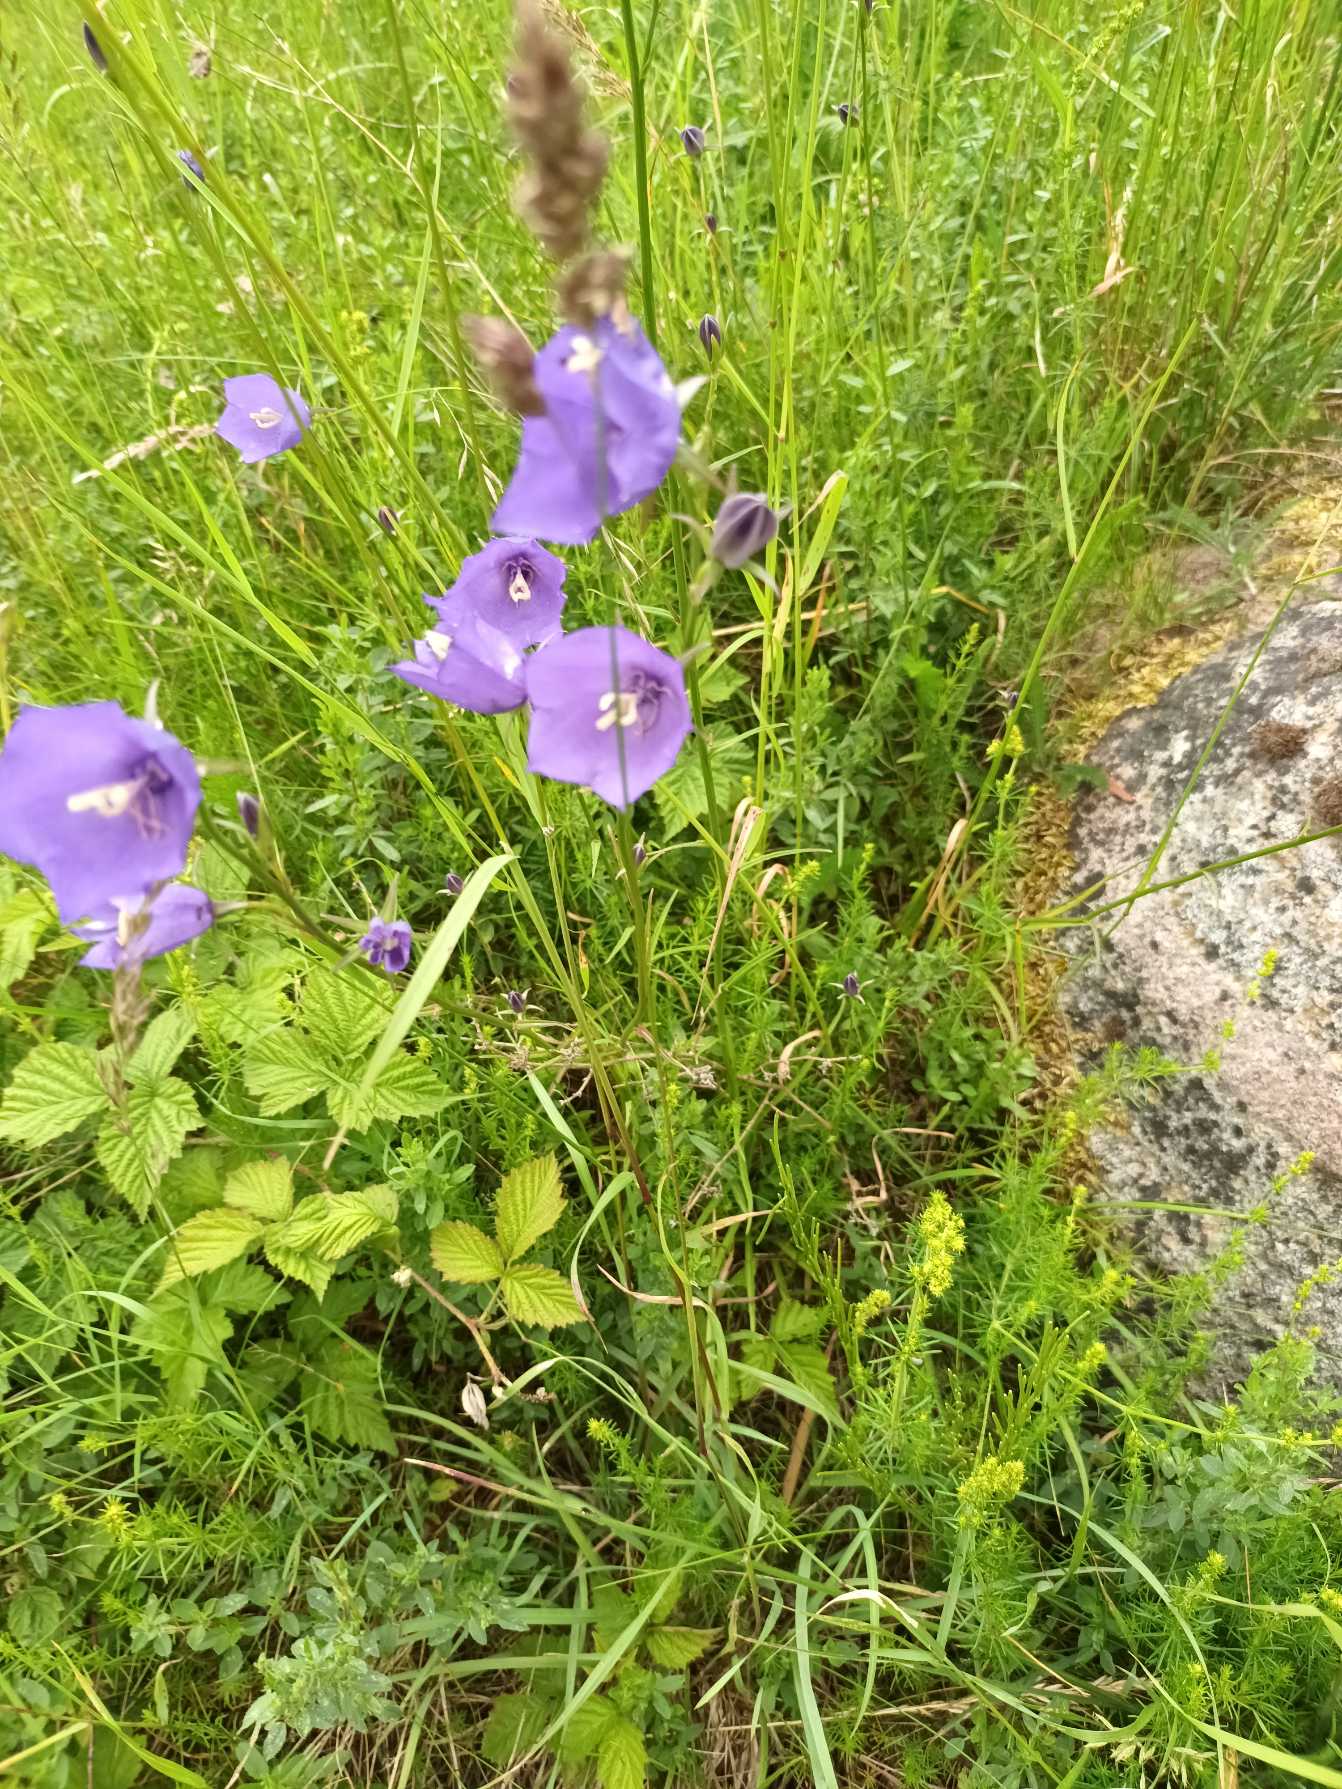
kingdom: Plantae
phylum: Tracheophyta
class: Magnoliopsida
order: Asterales
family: Campanulaceae
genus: Campanula
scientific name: Campanula persicifolia
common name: Smalbladet klokke
